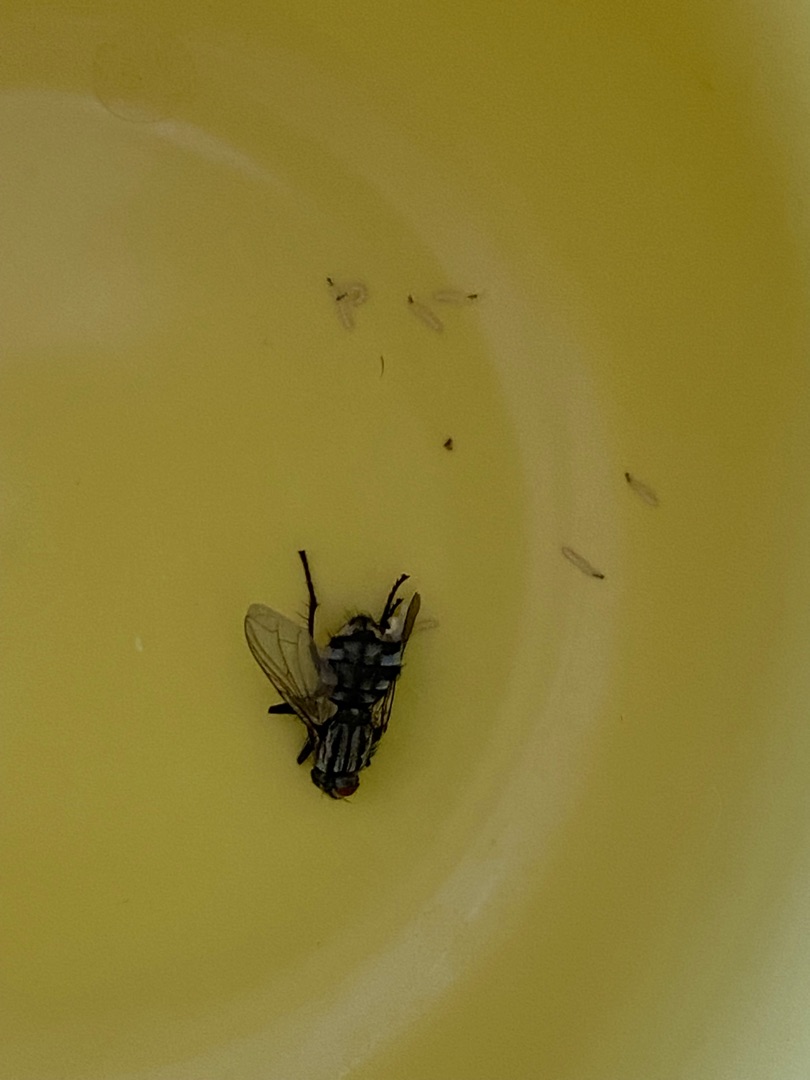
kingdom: Animalia
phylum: Arthropoda
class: Insecta
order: Diptera
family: Sarcophagidae
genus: Sarcophaga
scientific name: Sarcophaga
